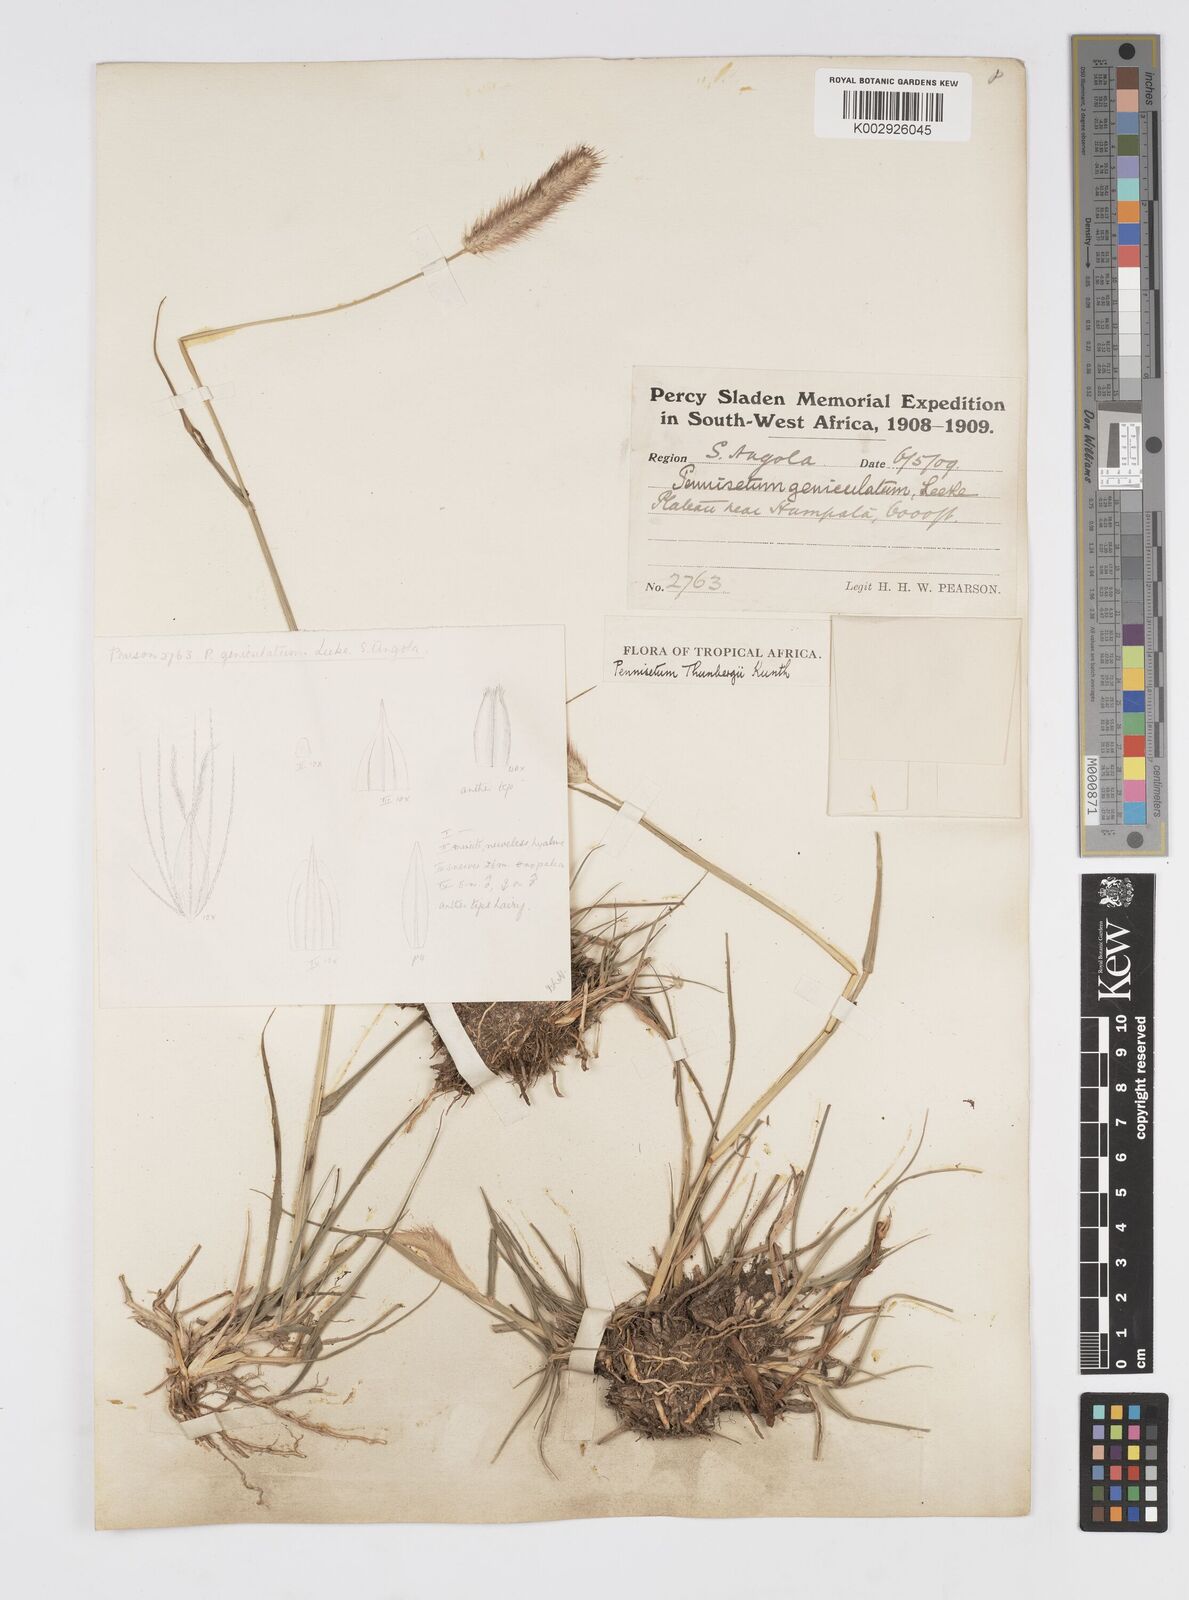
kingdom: Plantae
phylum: Tracheophyta
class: Liliopsida
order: Poales
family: Poaceae
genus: Cenchrus
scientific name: Cenchrus geniculatus
